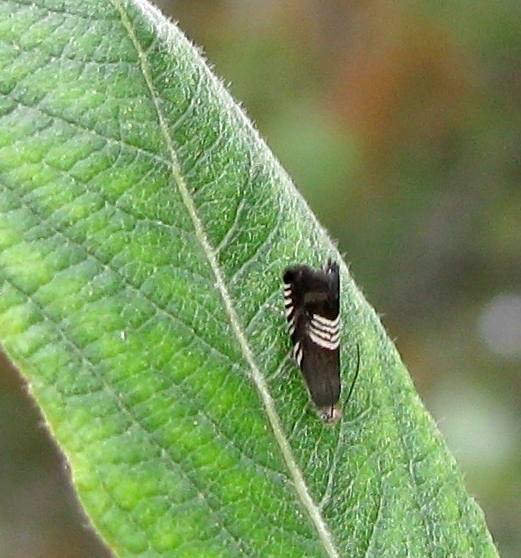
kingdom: Animalia
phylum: Arthropoda
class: Insecta
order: Lepidoptera
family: Tortricidae
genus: Grapholita
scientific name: Grapholita compositella
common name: Triple-stripe piercer
